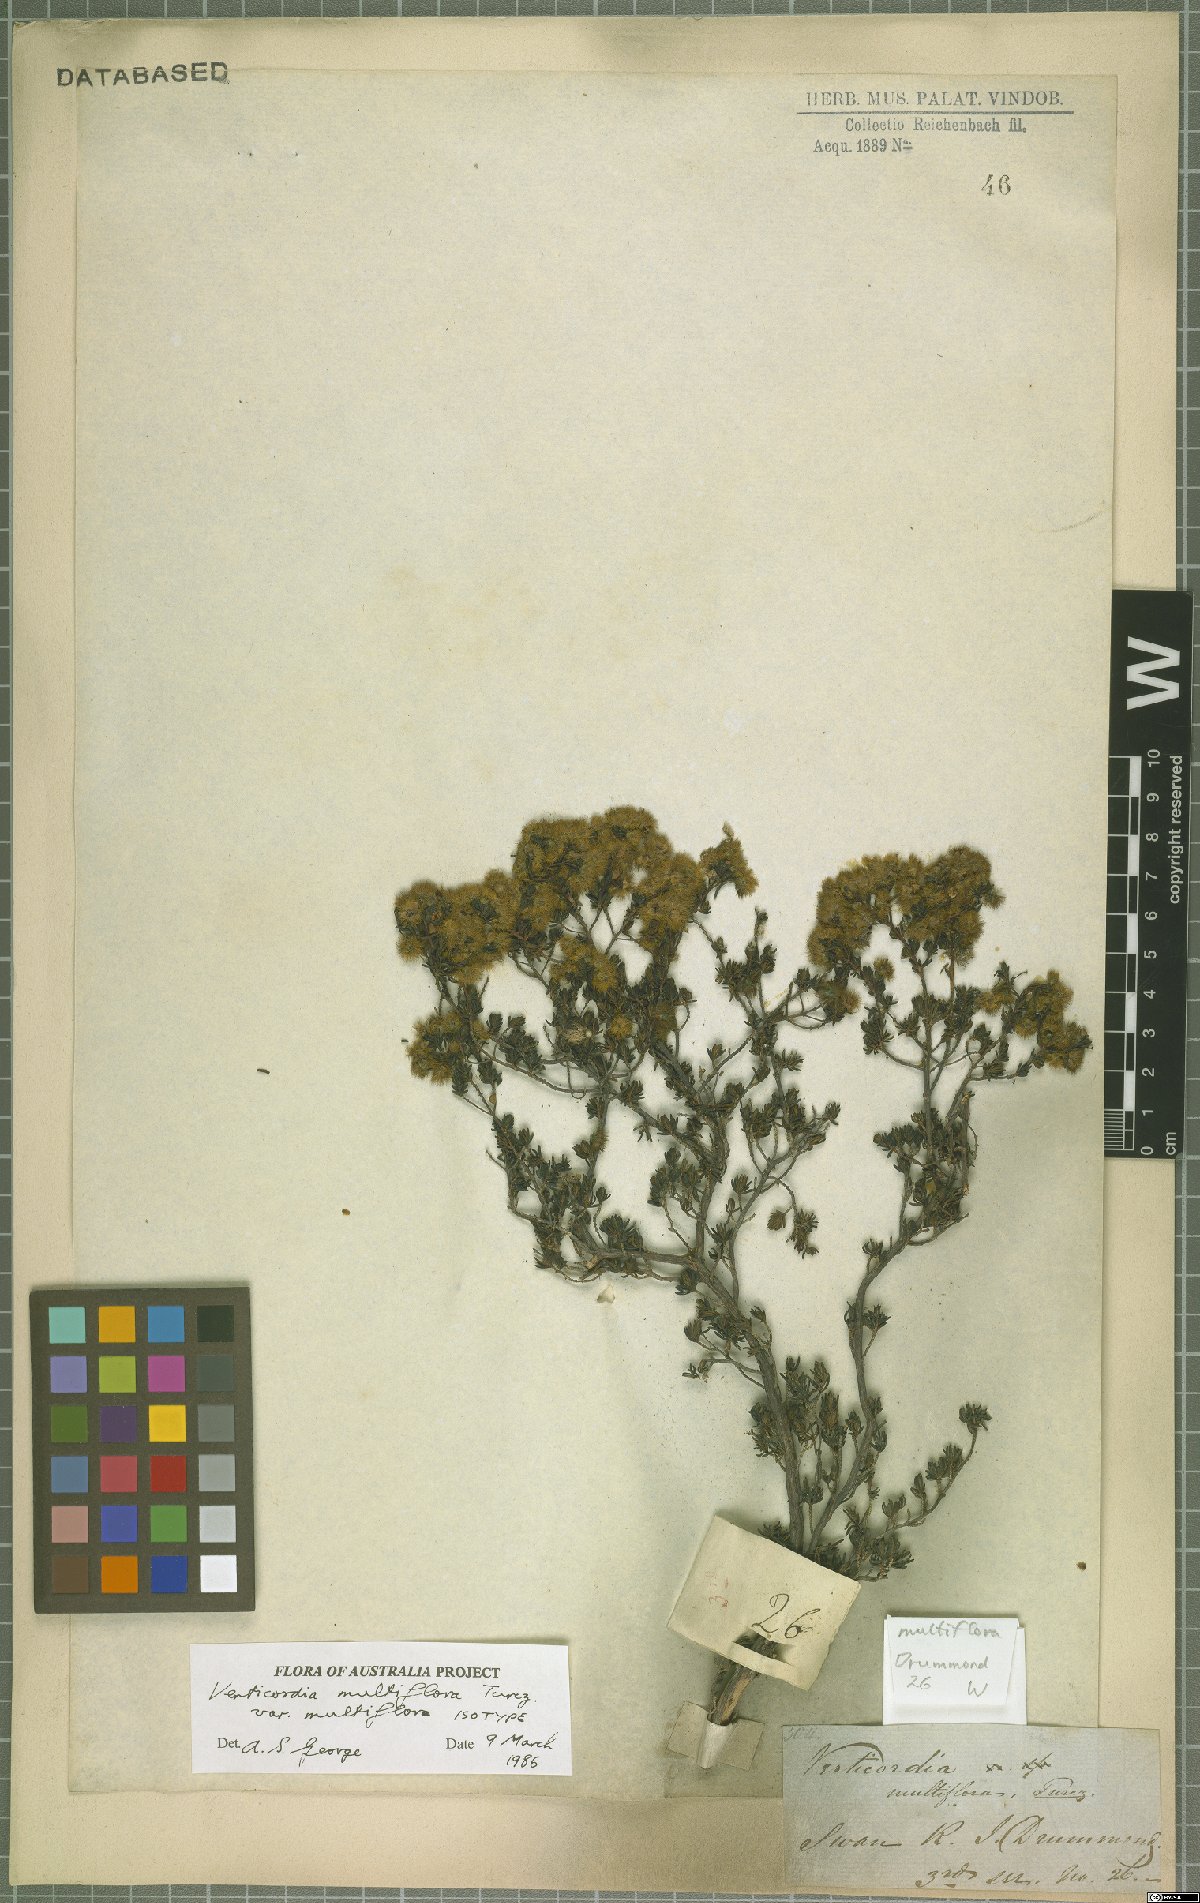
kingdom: Plantae
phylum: Tracheophyta
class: Magnoliopsida
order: Myrtales
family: Myrtaceae
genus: Verticordia
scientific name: Verticordia multiflora
